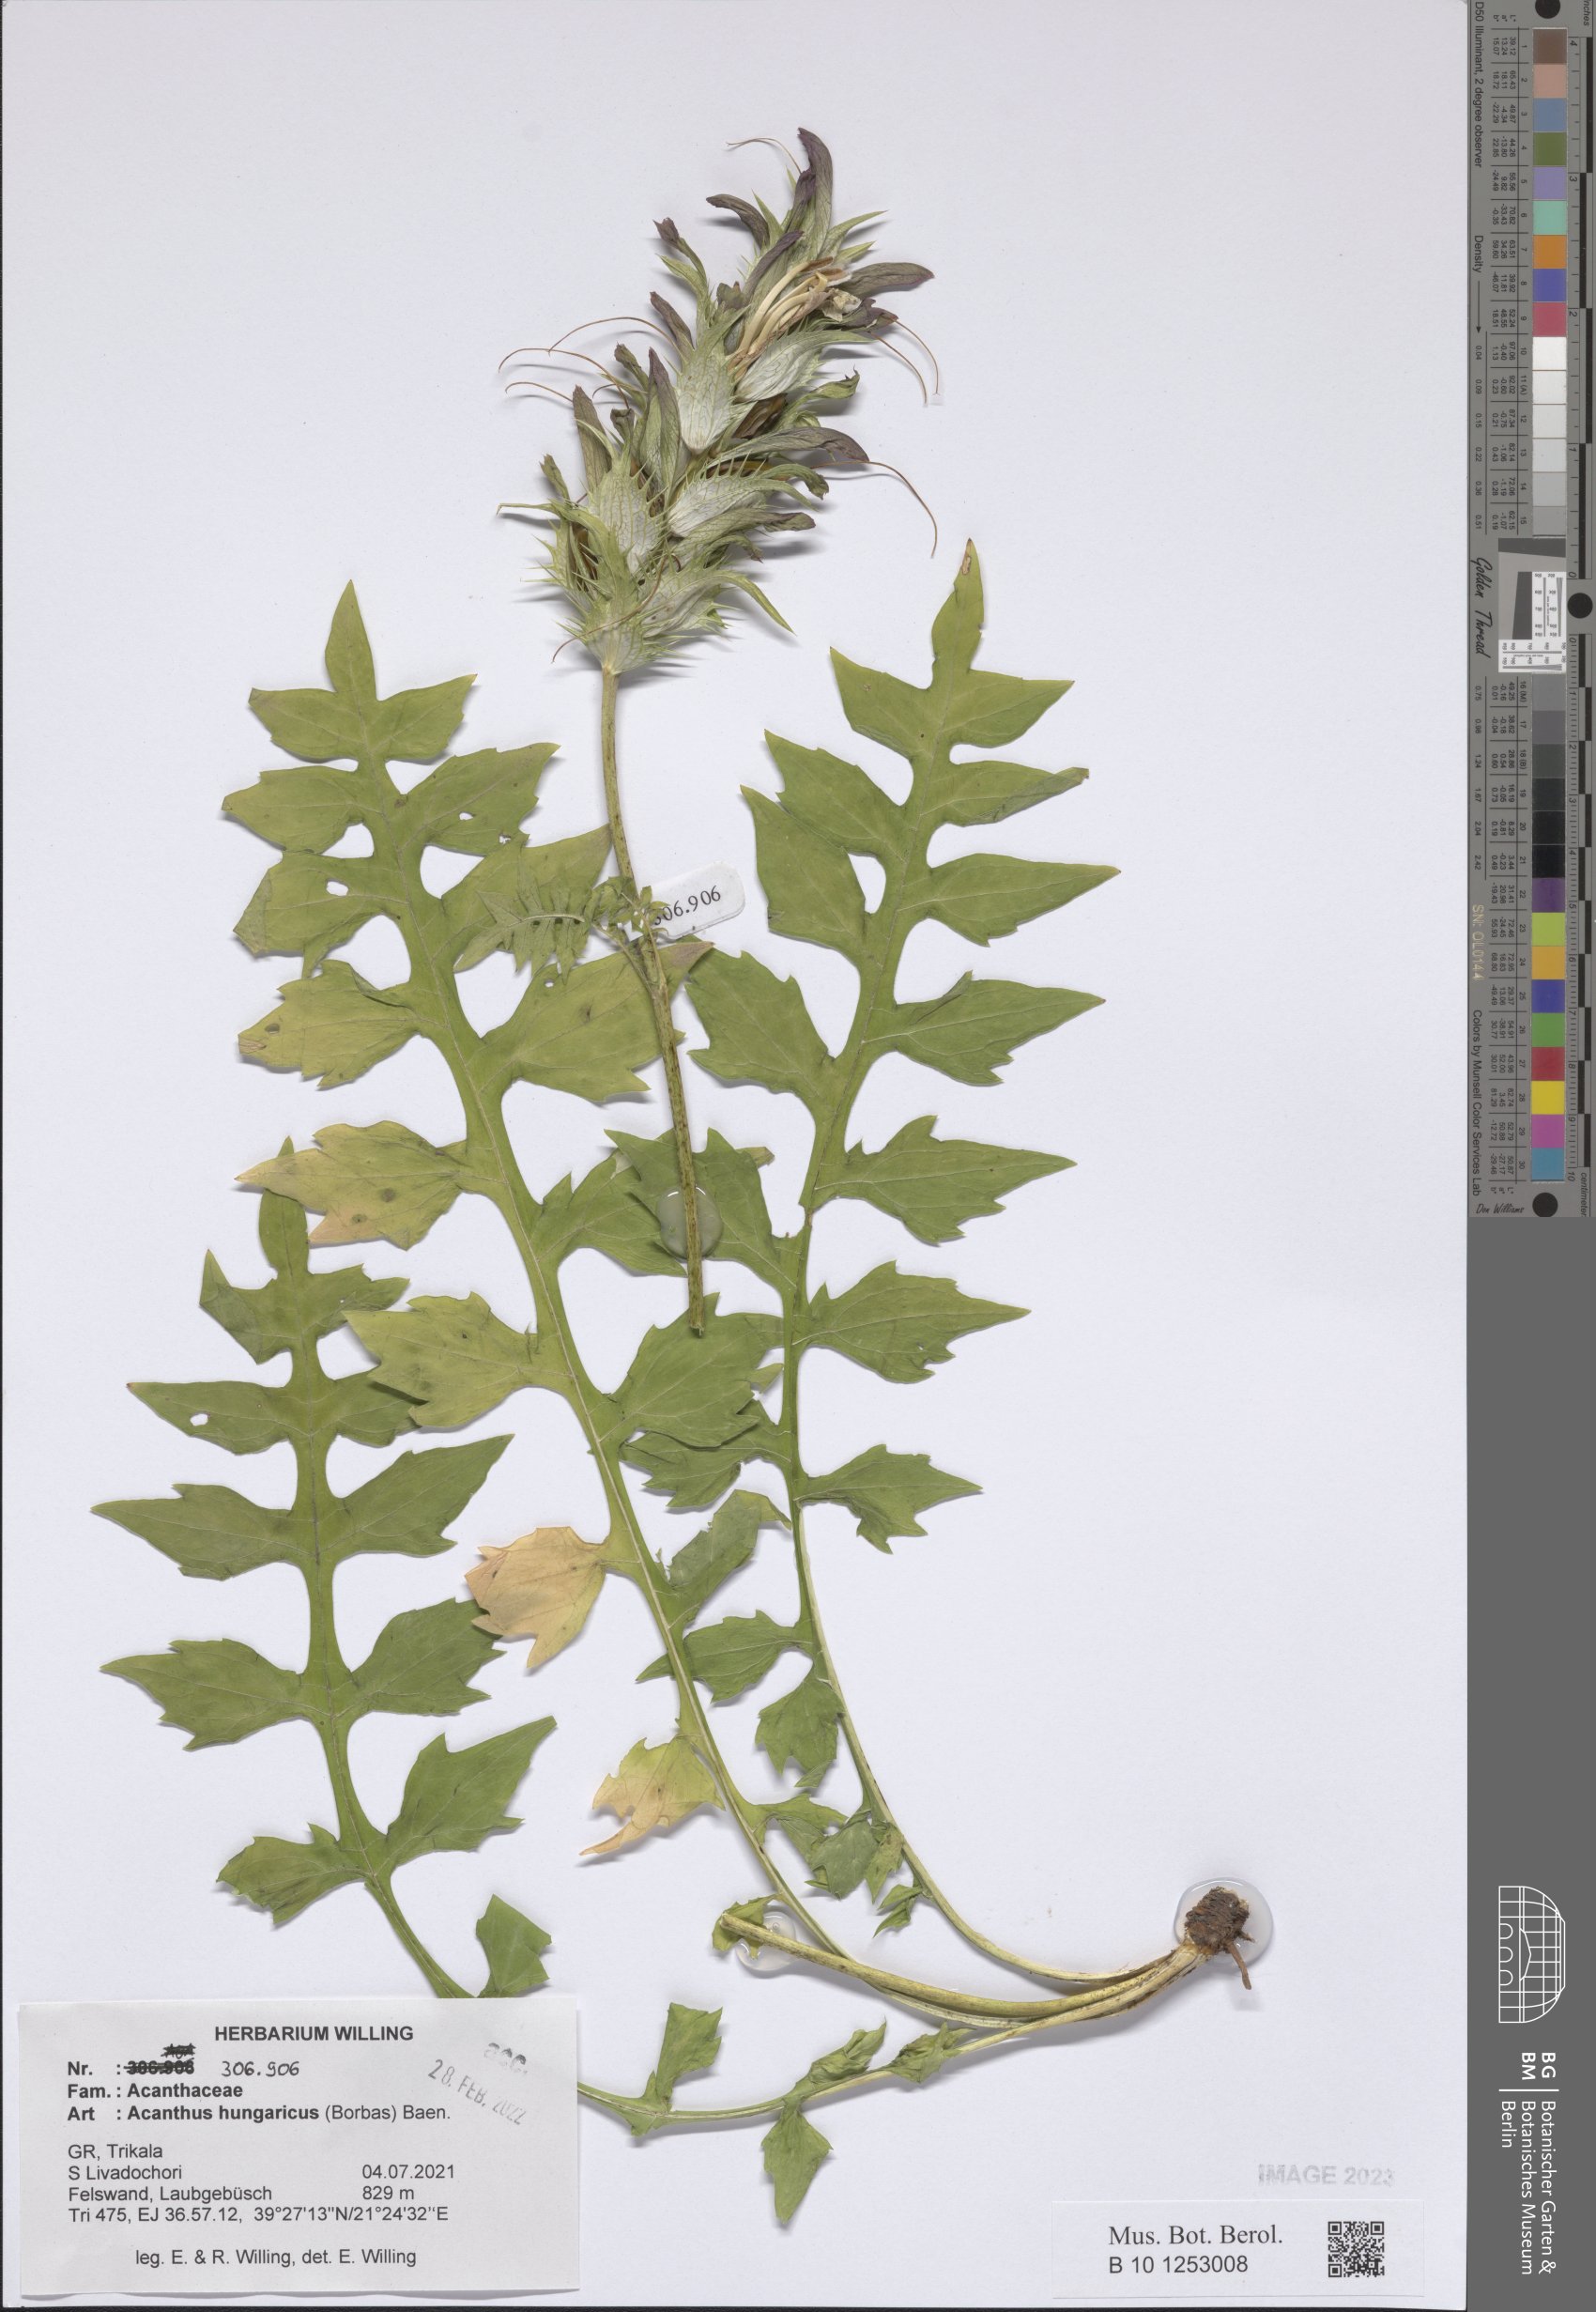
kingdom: Plantae
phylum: Tracheophyta
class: Magnoliopsida
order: Lamiales
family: Acanthaceae
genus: Acanthus
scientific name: Acanthus hungaricus
